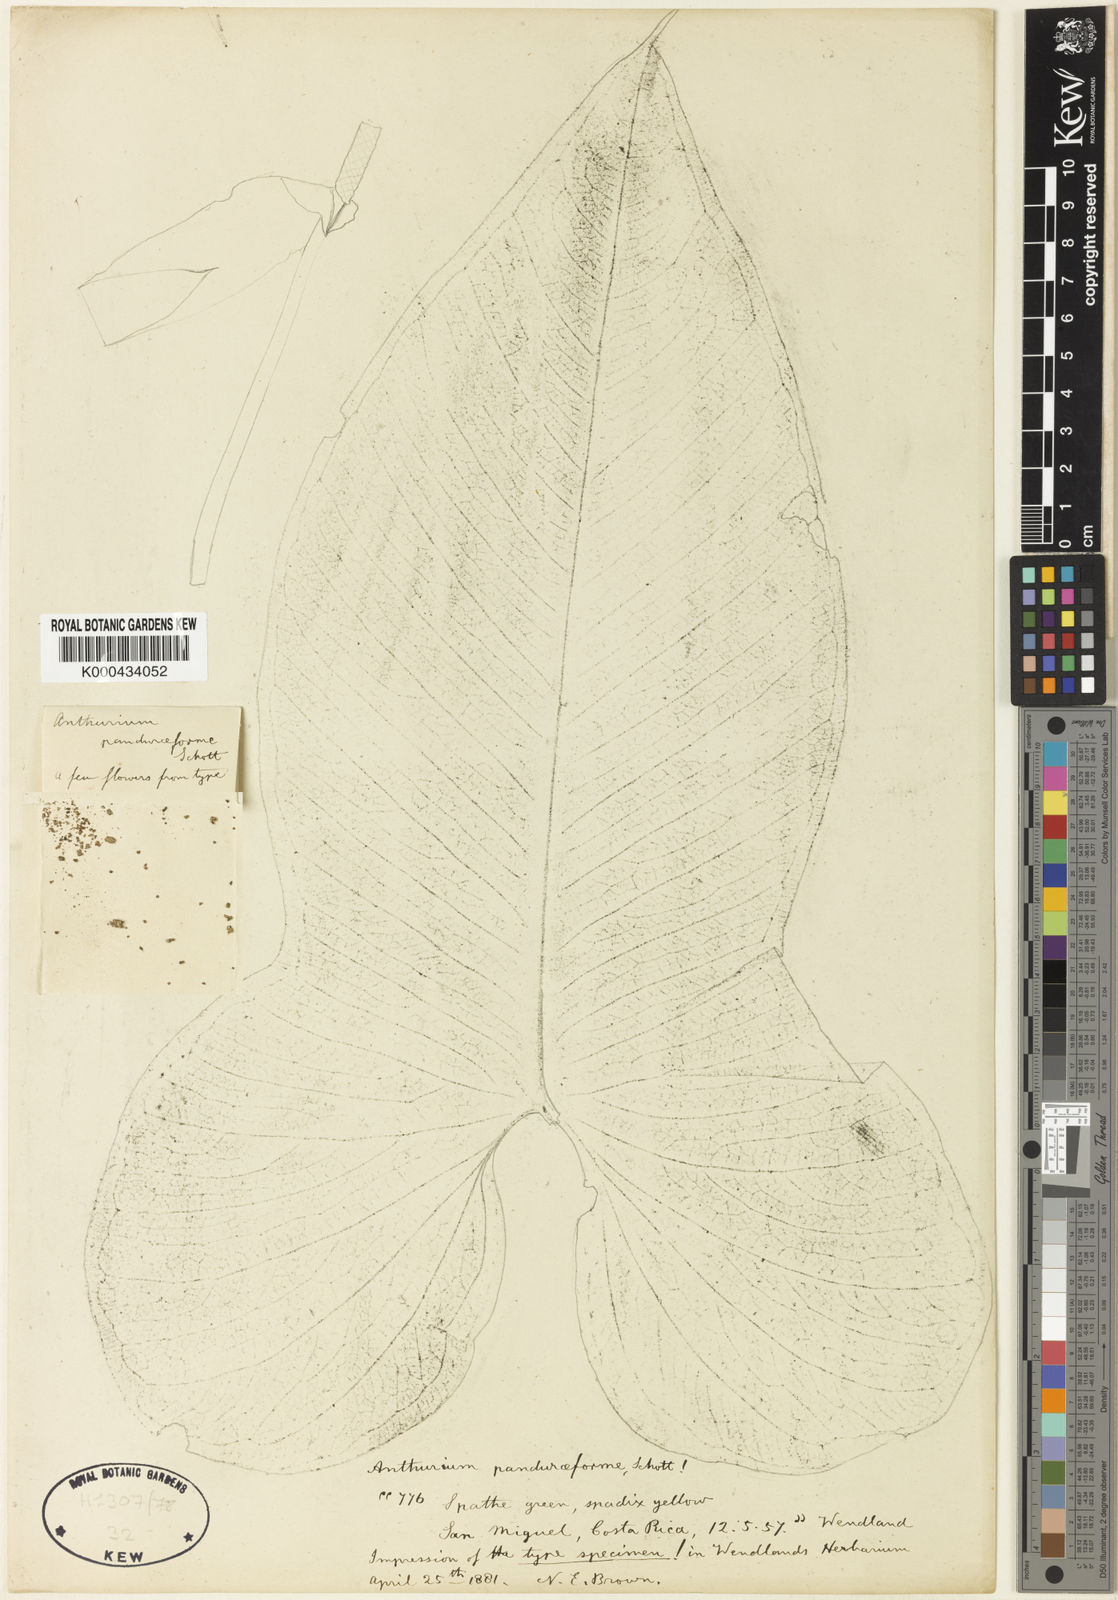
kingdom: Plantae
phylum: Tracheophyta
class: Liliopsida
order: Alismatales
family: Araceae
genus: Anthurium
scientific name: Anthurium panduriforme
